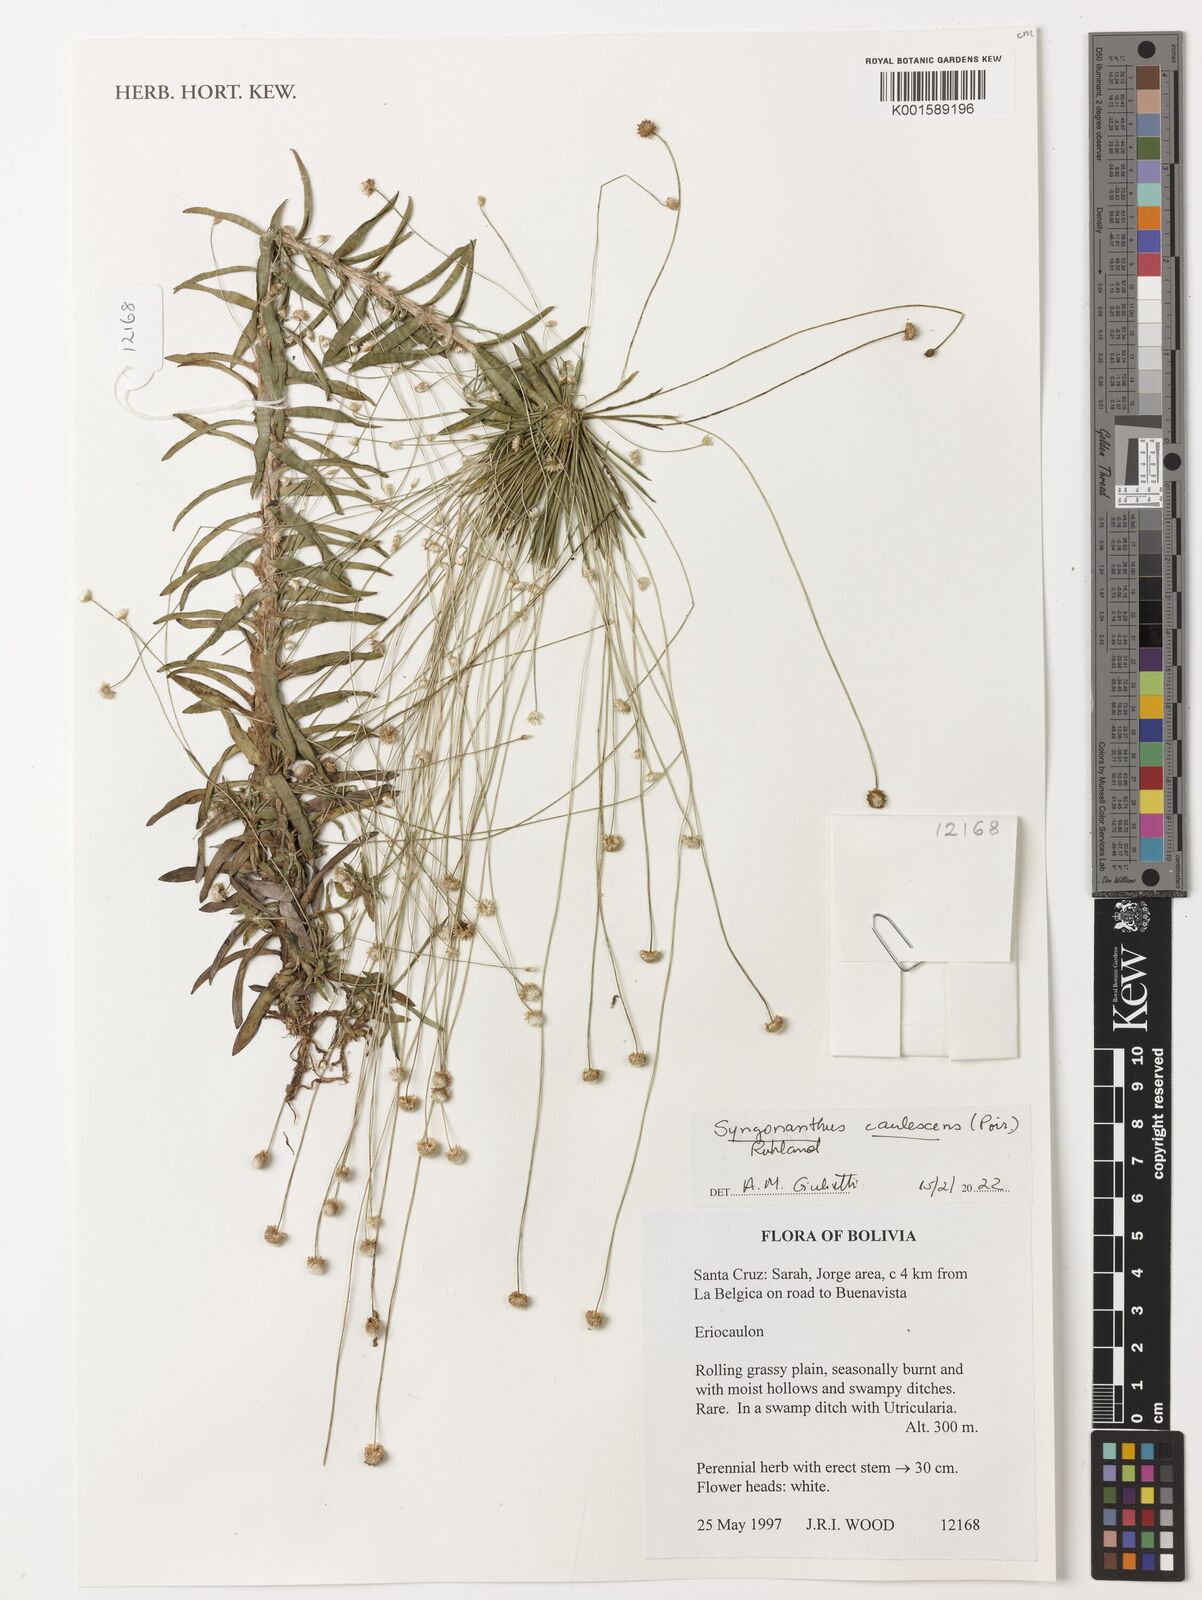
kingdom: Plantae
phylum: Tracheophyta
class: Liliopsida
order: Poales
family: Eriocaulaceae
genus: Syngonanthus
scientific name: Syngonanthus caulescens
